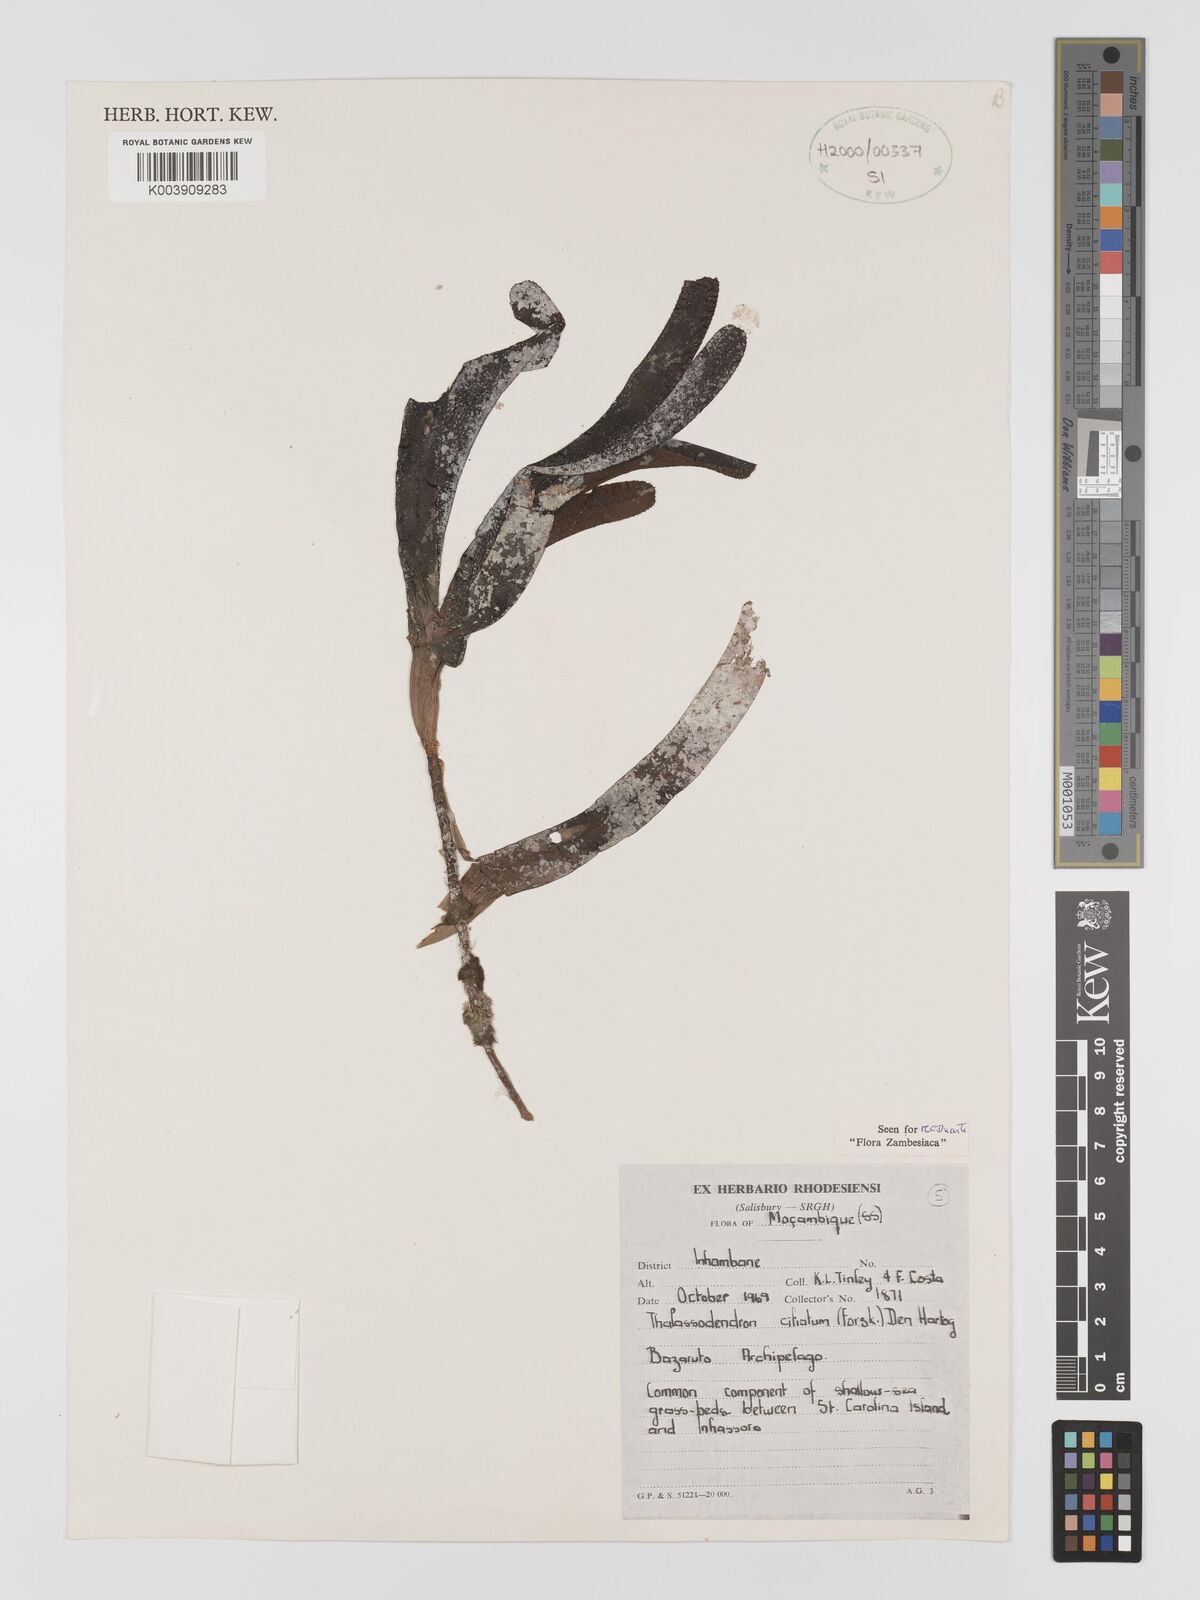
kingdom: Plantae
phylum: Tracheophyta
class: Liliopsida
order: Alismatales
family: Cymodoceaceae
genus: Thalassodendron
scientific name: Thalassodendron ciliatum
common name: Species code: tc
